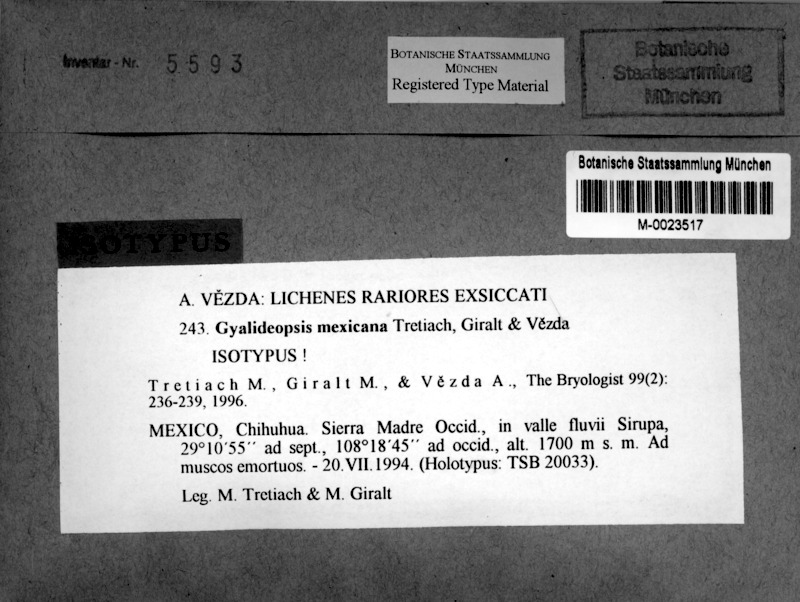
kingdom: Fungi
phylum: Ascomycota
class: Lecanoromycetes
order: Ostropales
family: Gomphillaceae
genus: Gyalideopsis
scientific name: Gyalideopsis
